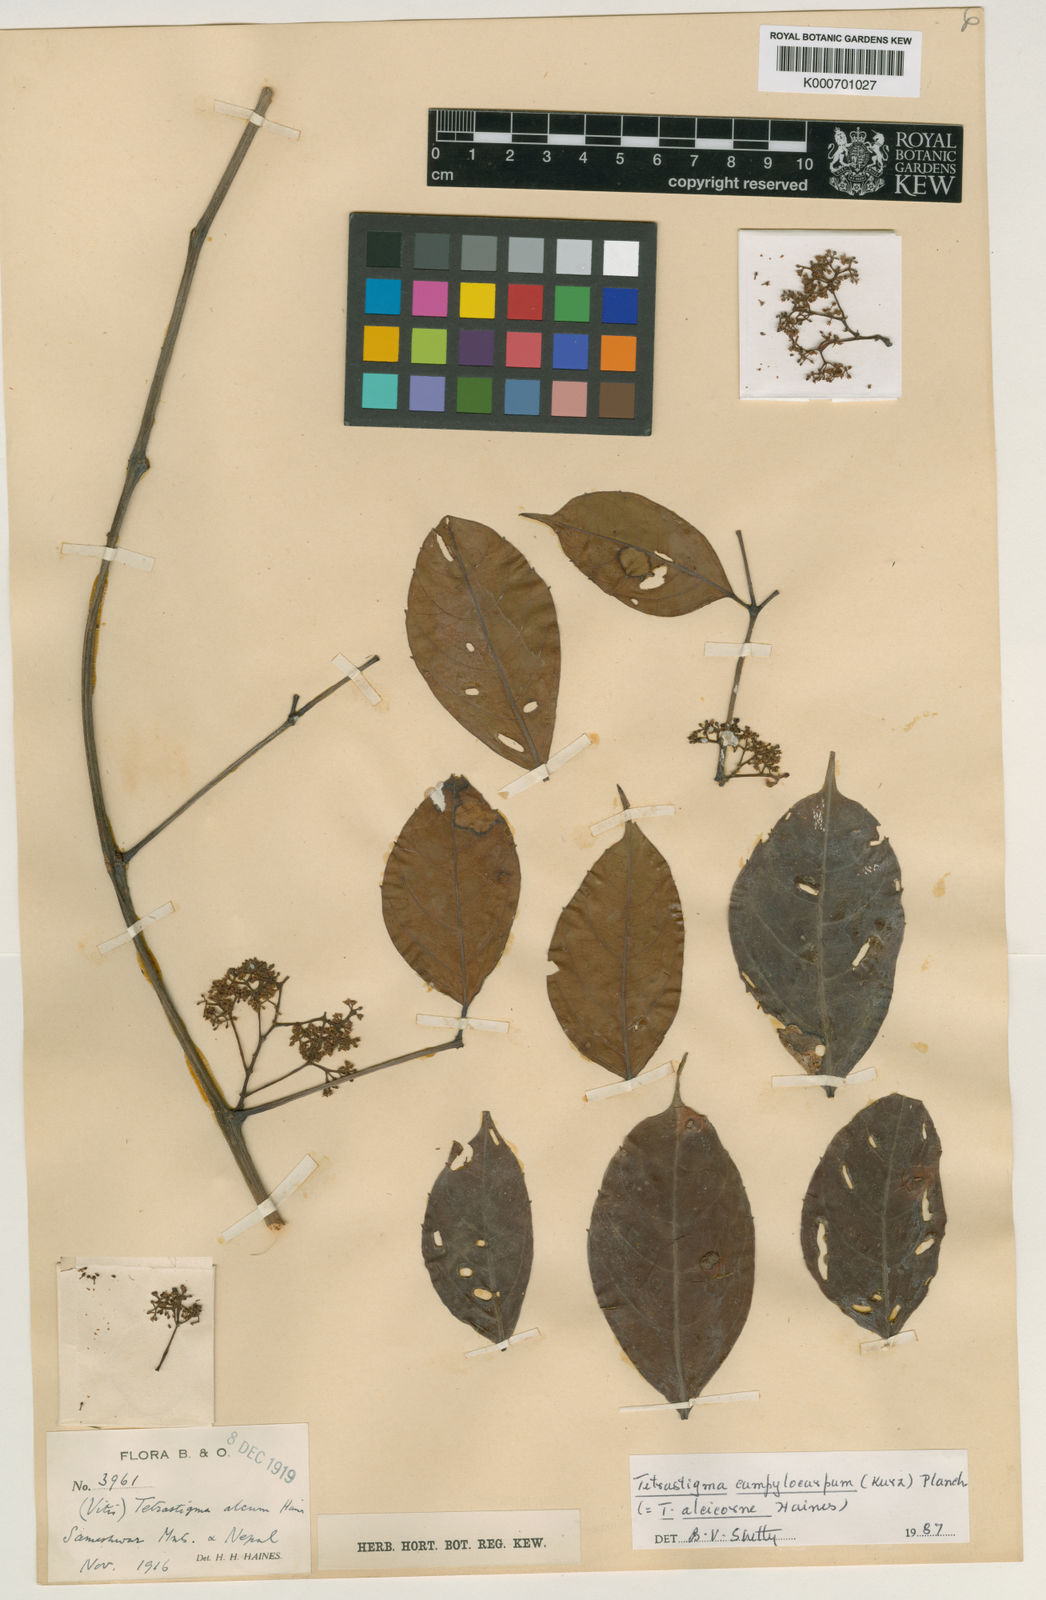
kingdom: Plantae
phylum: Tracheophyta
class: Magnoliopsida
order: Vitales
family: Vitaceae
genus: Tetrastigma
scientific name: Tetrastigma campylocarpum
